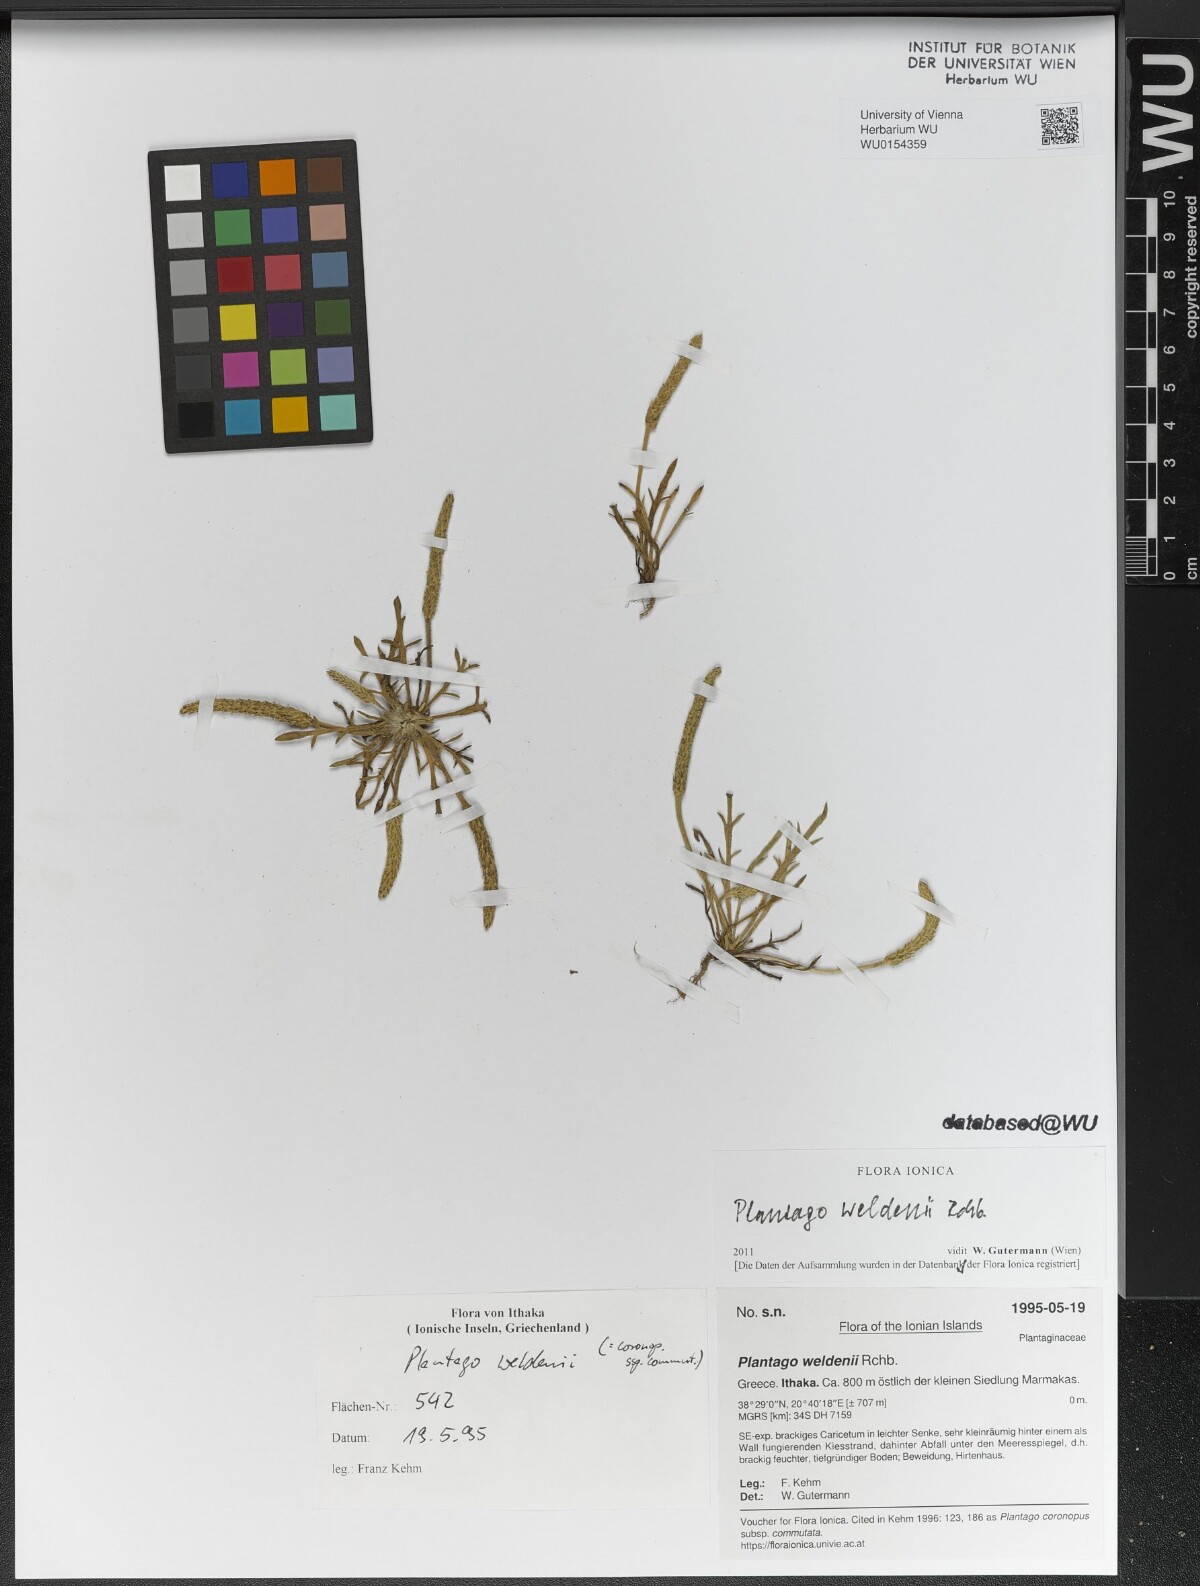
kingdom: Plantae
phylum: Tracheophyta
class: Magnoliopsida
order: Lamiales
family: Plantaginaceae
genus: Plantago
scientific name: Plantago weldenii
